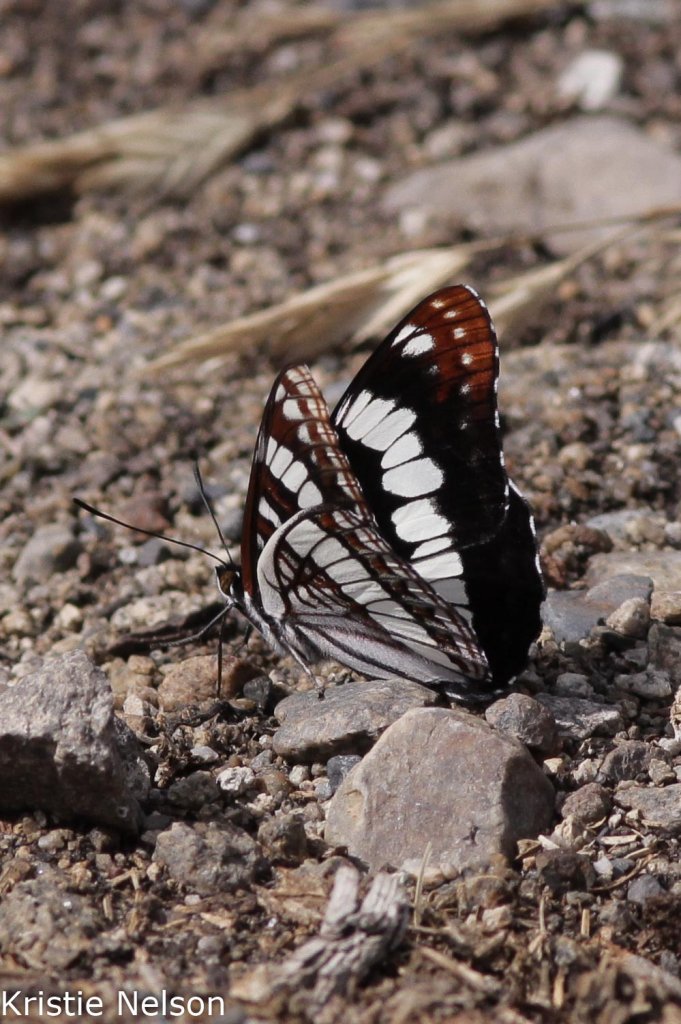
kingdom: Animalia
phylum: Arthropoda
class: Insecta
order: Lepidoptera
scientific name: Lepidoptera
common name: Butterflies
